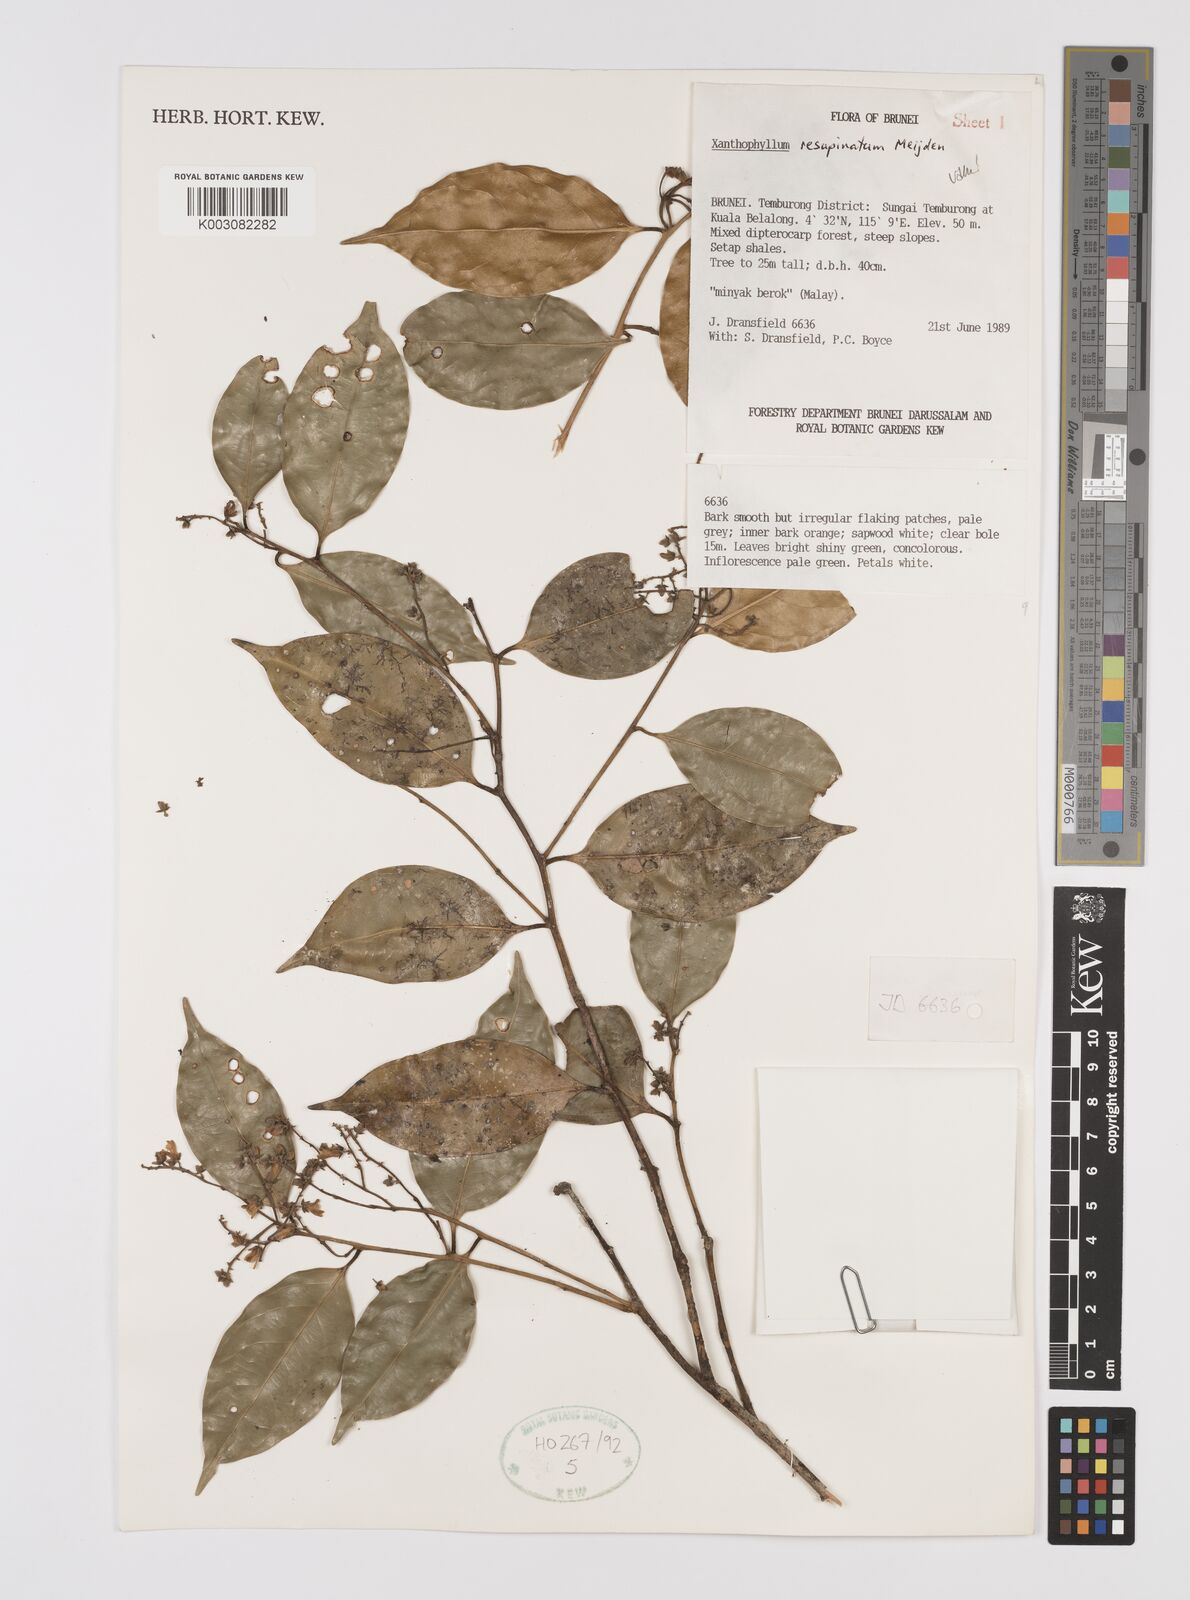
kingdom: Plantae
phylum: Tracheophyta
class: Magnoliopsida
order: Fabales
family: Polygalaceae
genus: Xanthophyllum
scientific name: Xanthophyllum resupinatum
